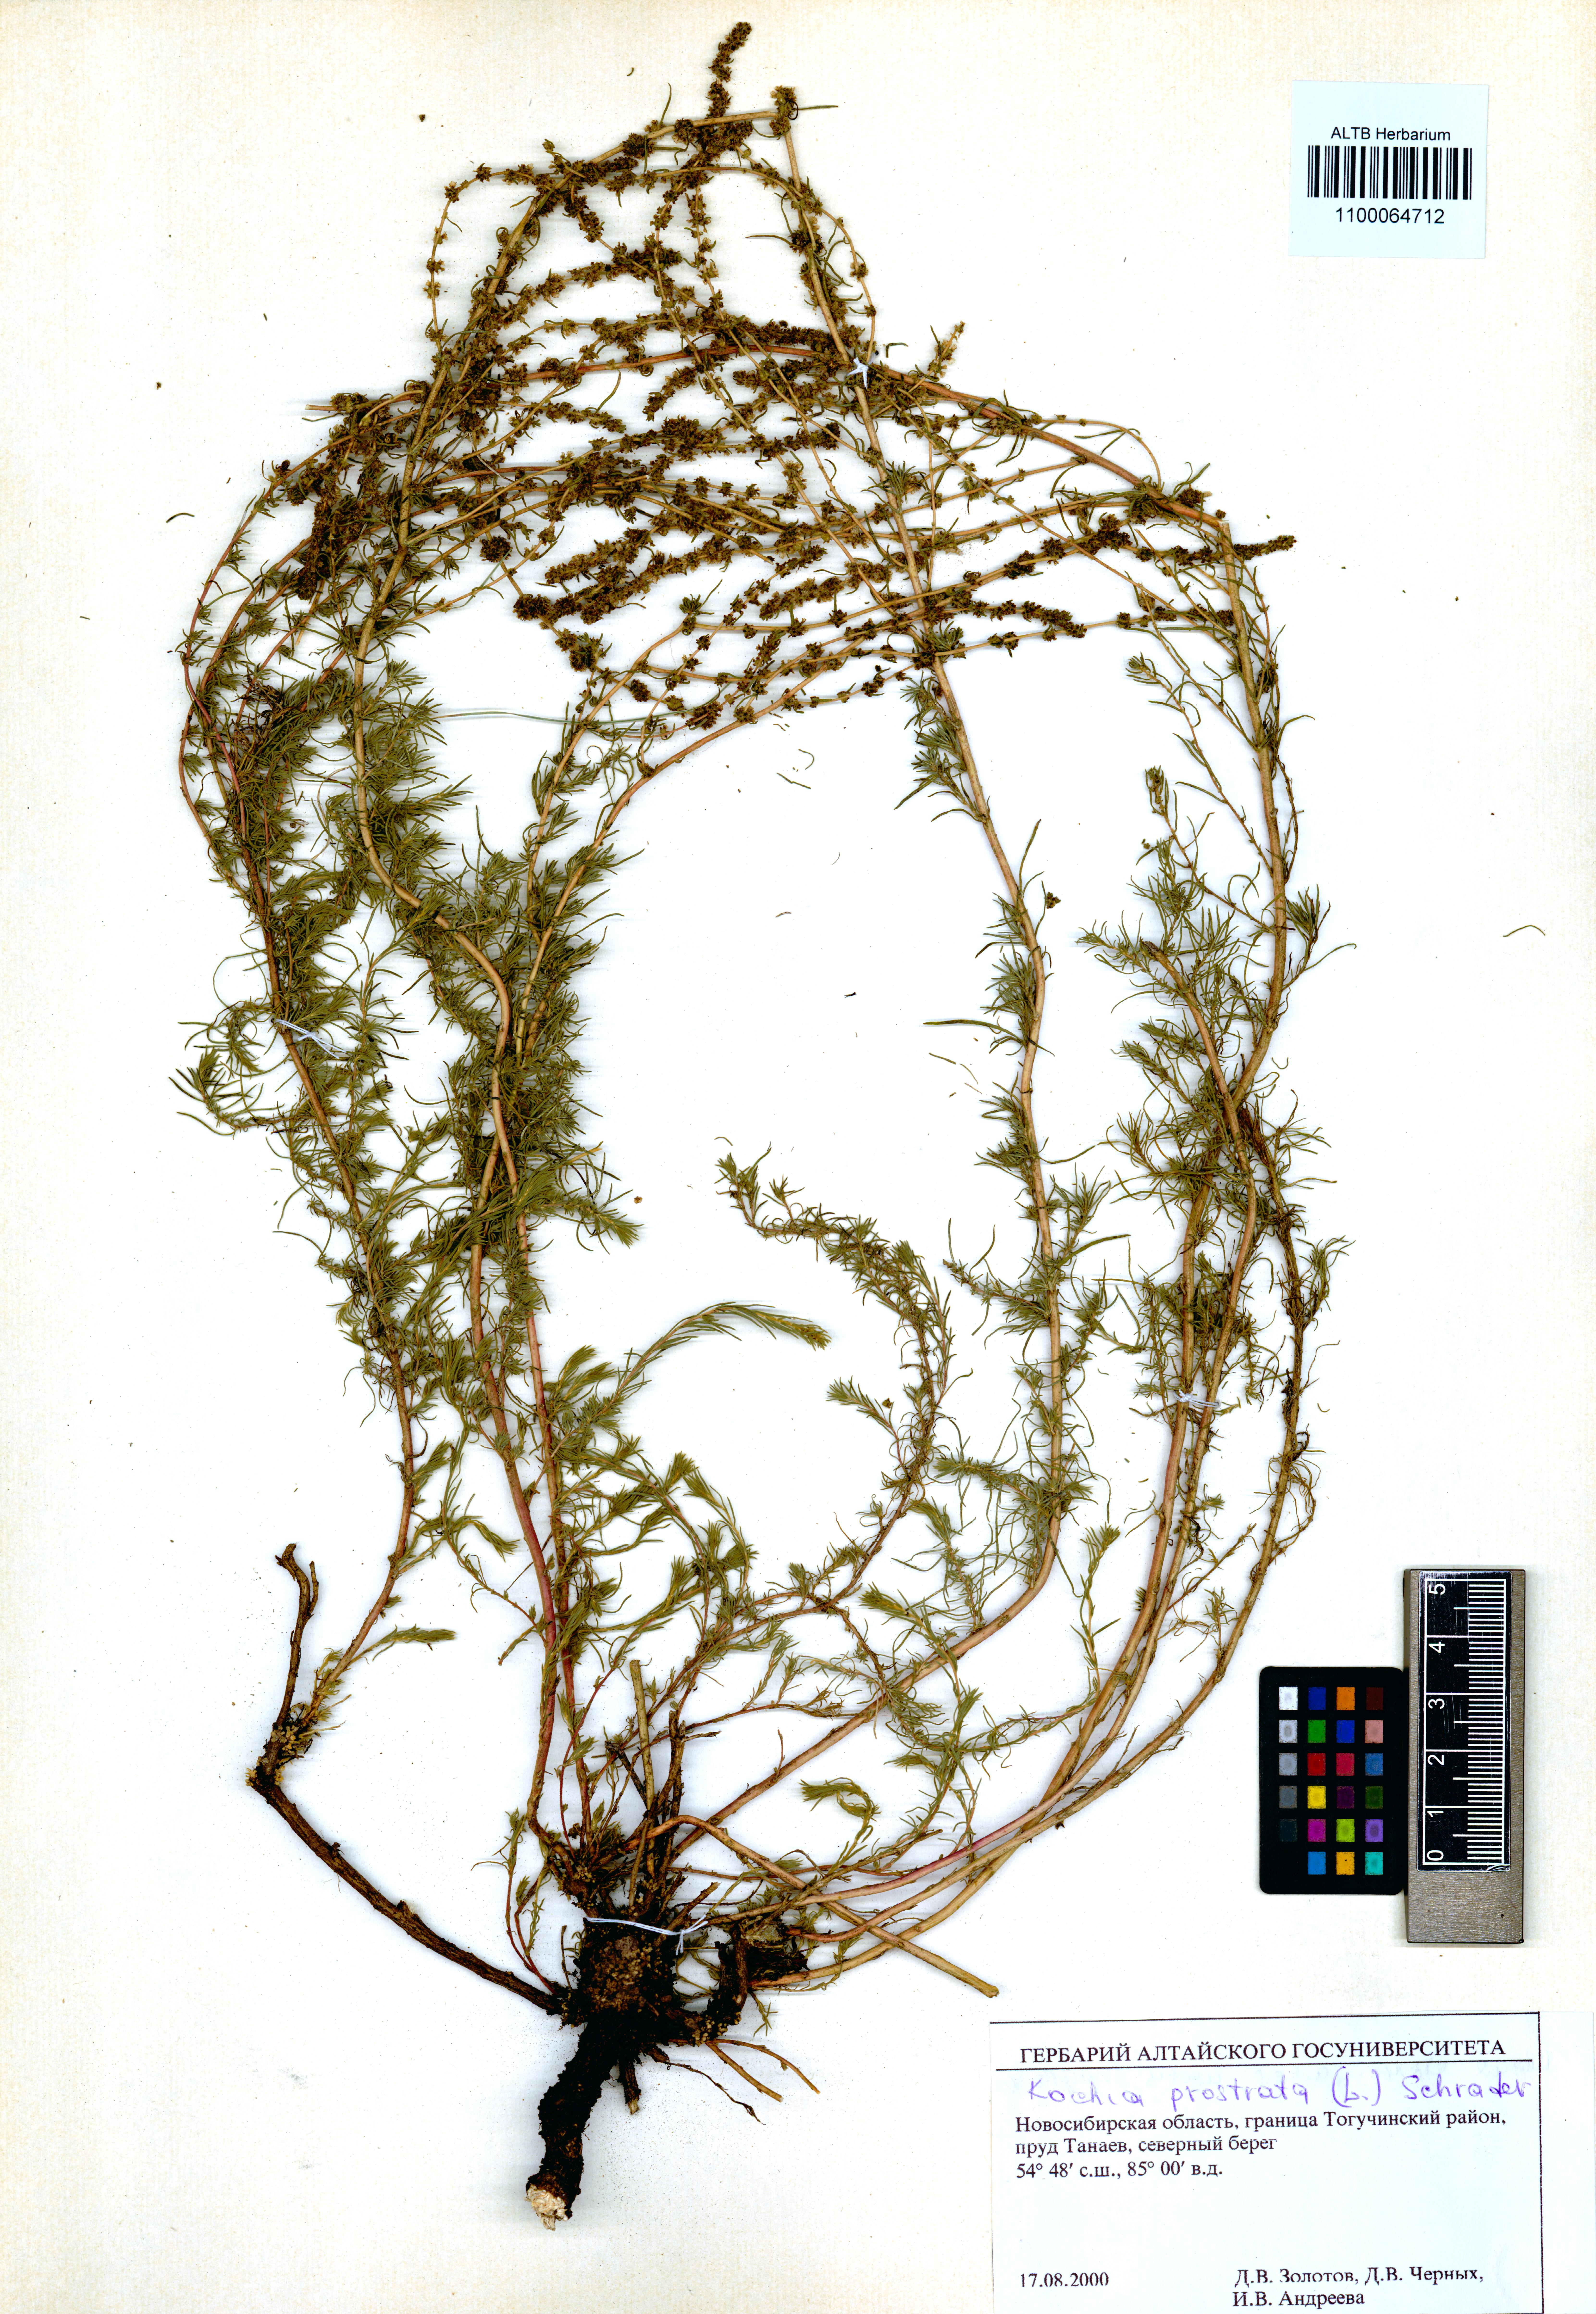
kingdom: Plantae
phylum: Tracheophyta
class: Magnoliopsida
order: Caryophyllales
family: Amaranthaceae
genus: Bassia
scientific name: Bassia prostrata
